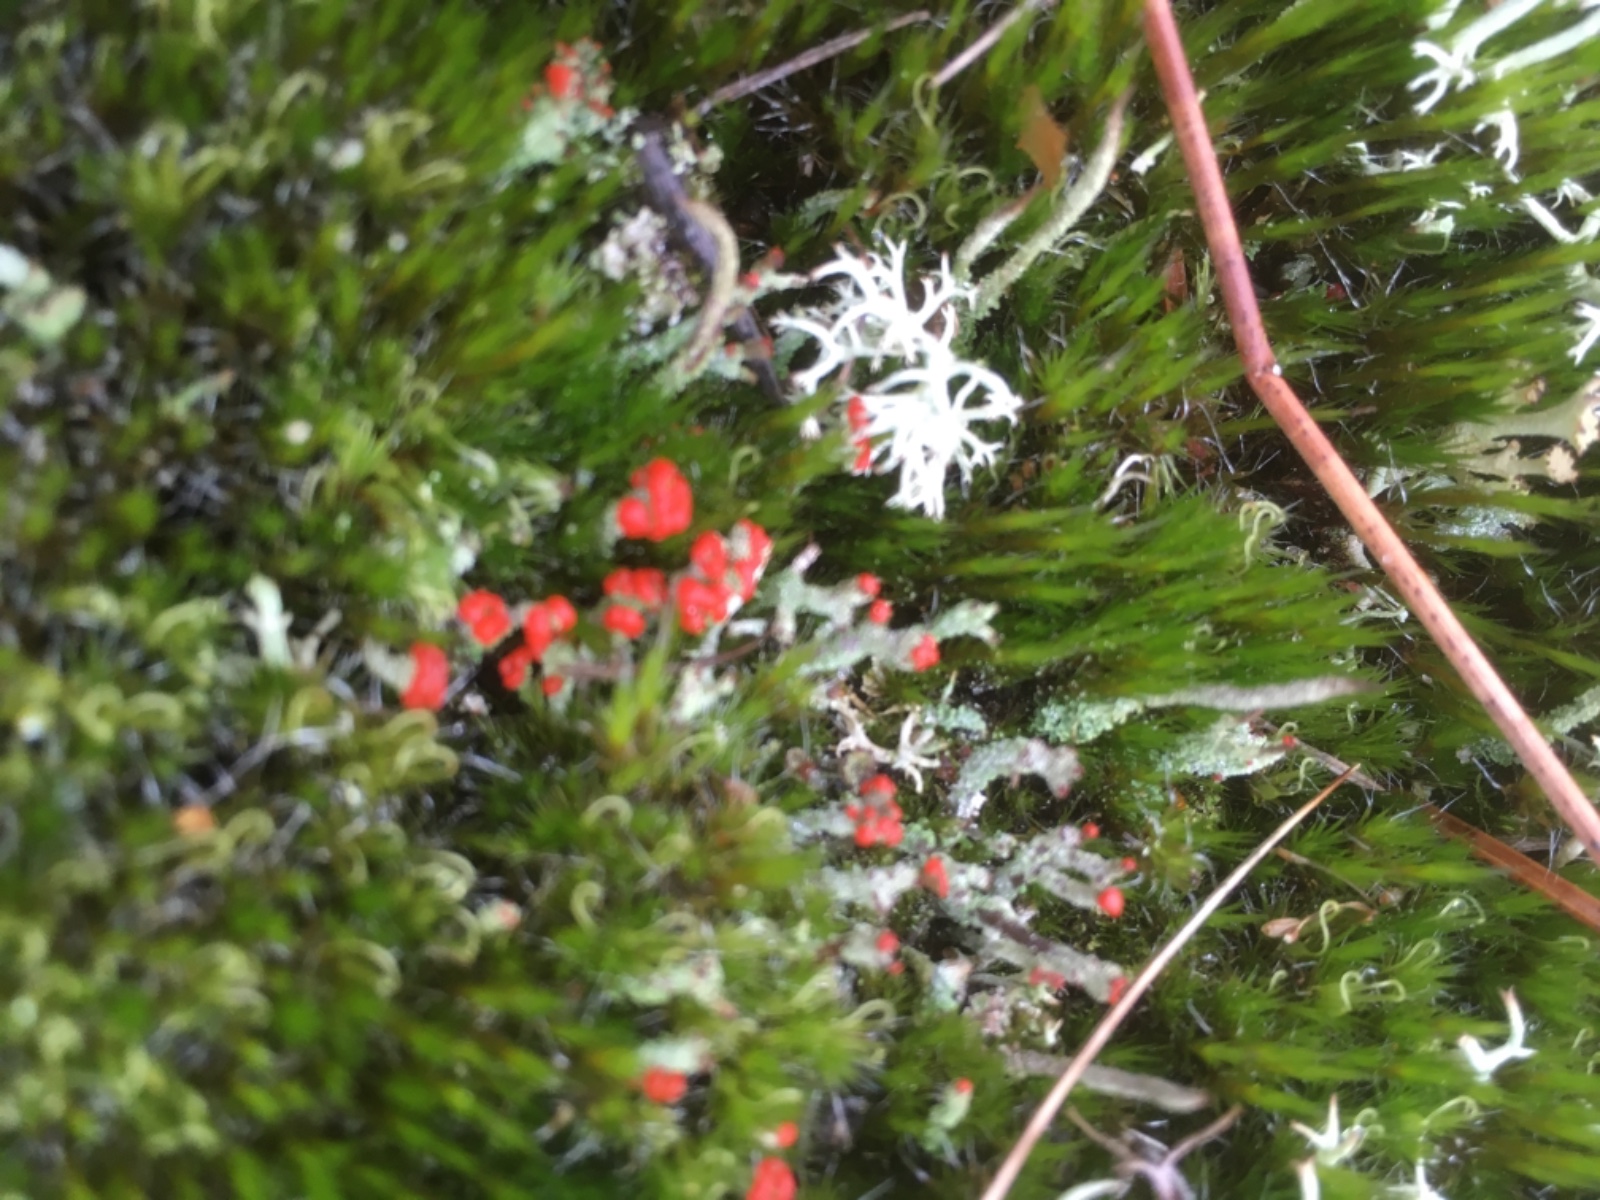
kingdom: Fungi
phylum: Ascomycota
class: Lecanoromycetes
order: Lecanorales
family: Cladoniaceae
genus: Cladonia
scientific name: Cladonia floerkeana
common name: lakrød bægerlav
